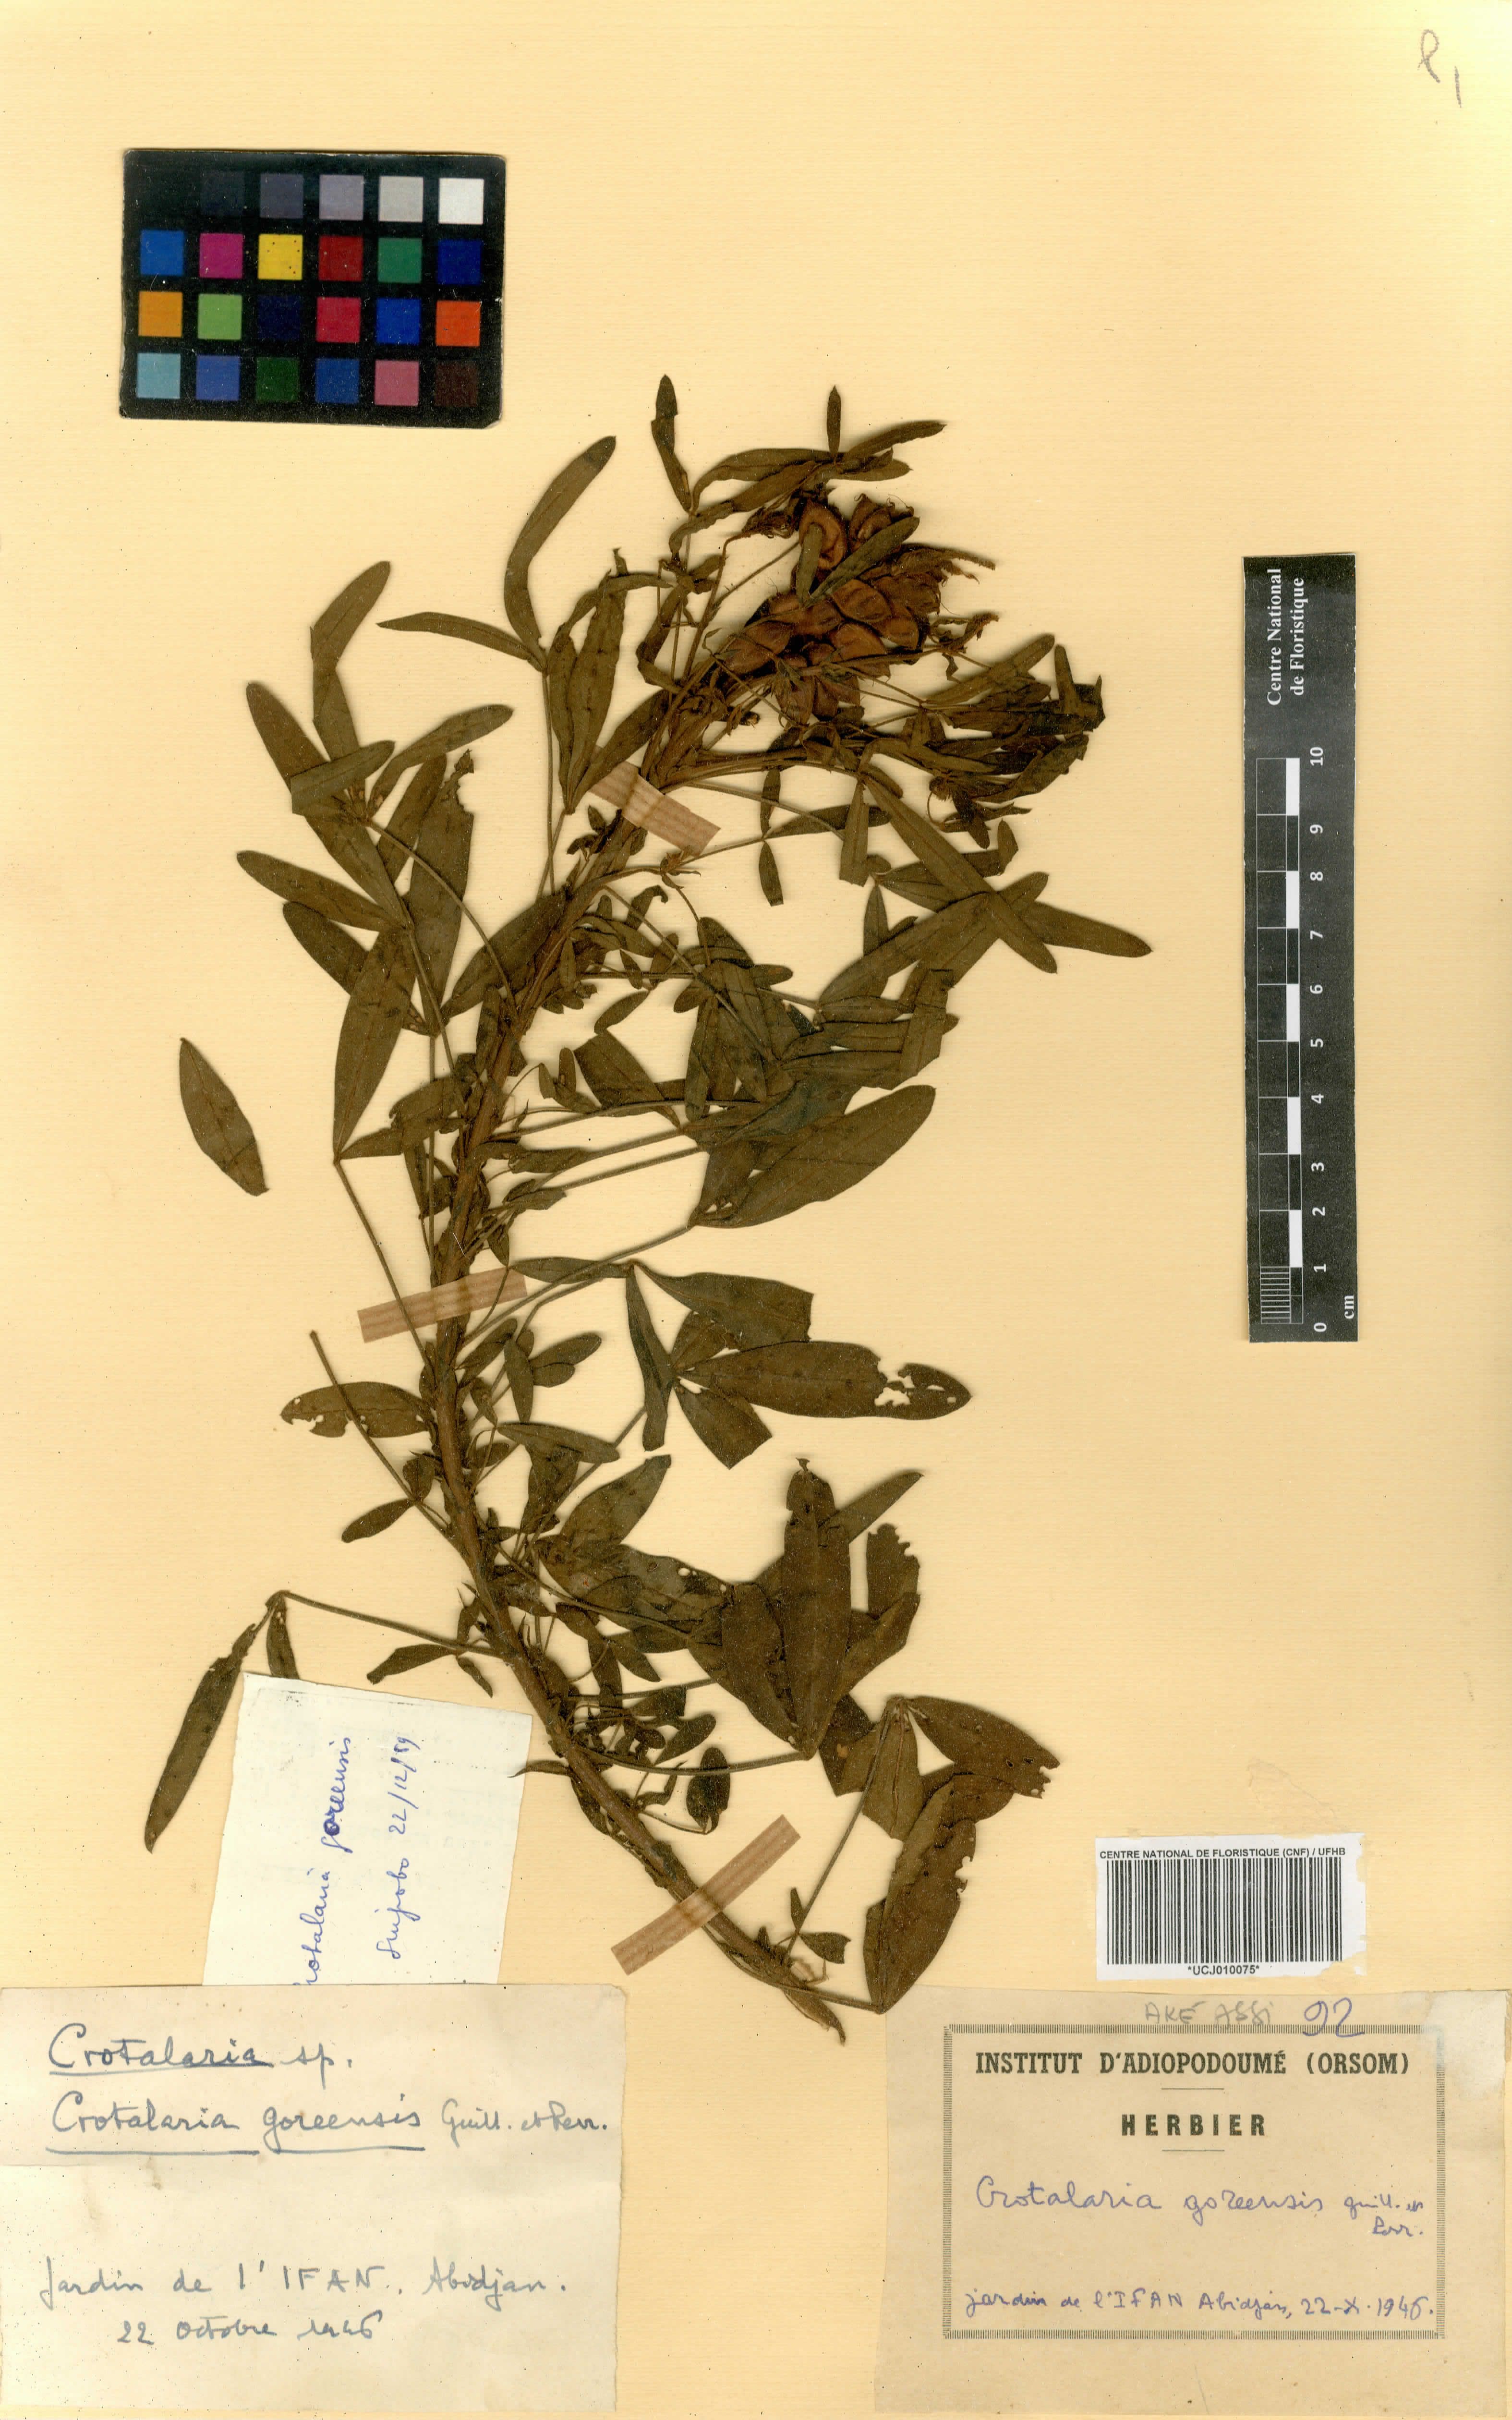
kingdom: Plantae
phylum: Tracheophyta
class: Magnoliopsida
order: Fabales
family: Fabaceae
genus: Crotalaria
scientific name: Crotalaria goreensis
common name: Gambia-pea
